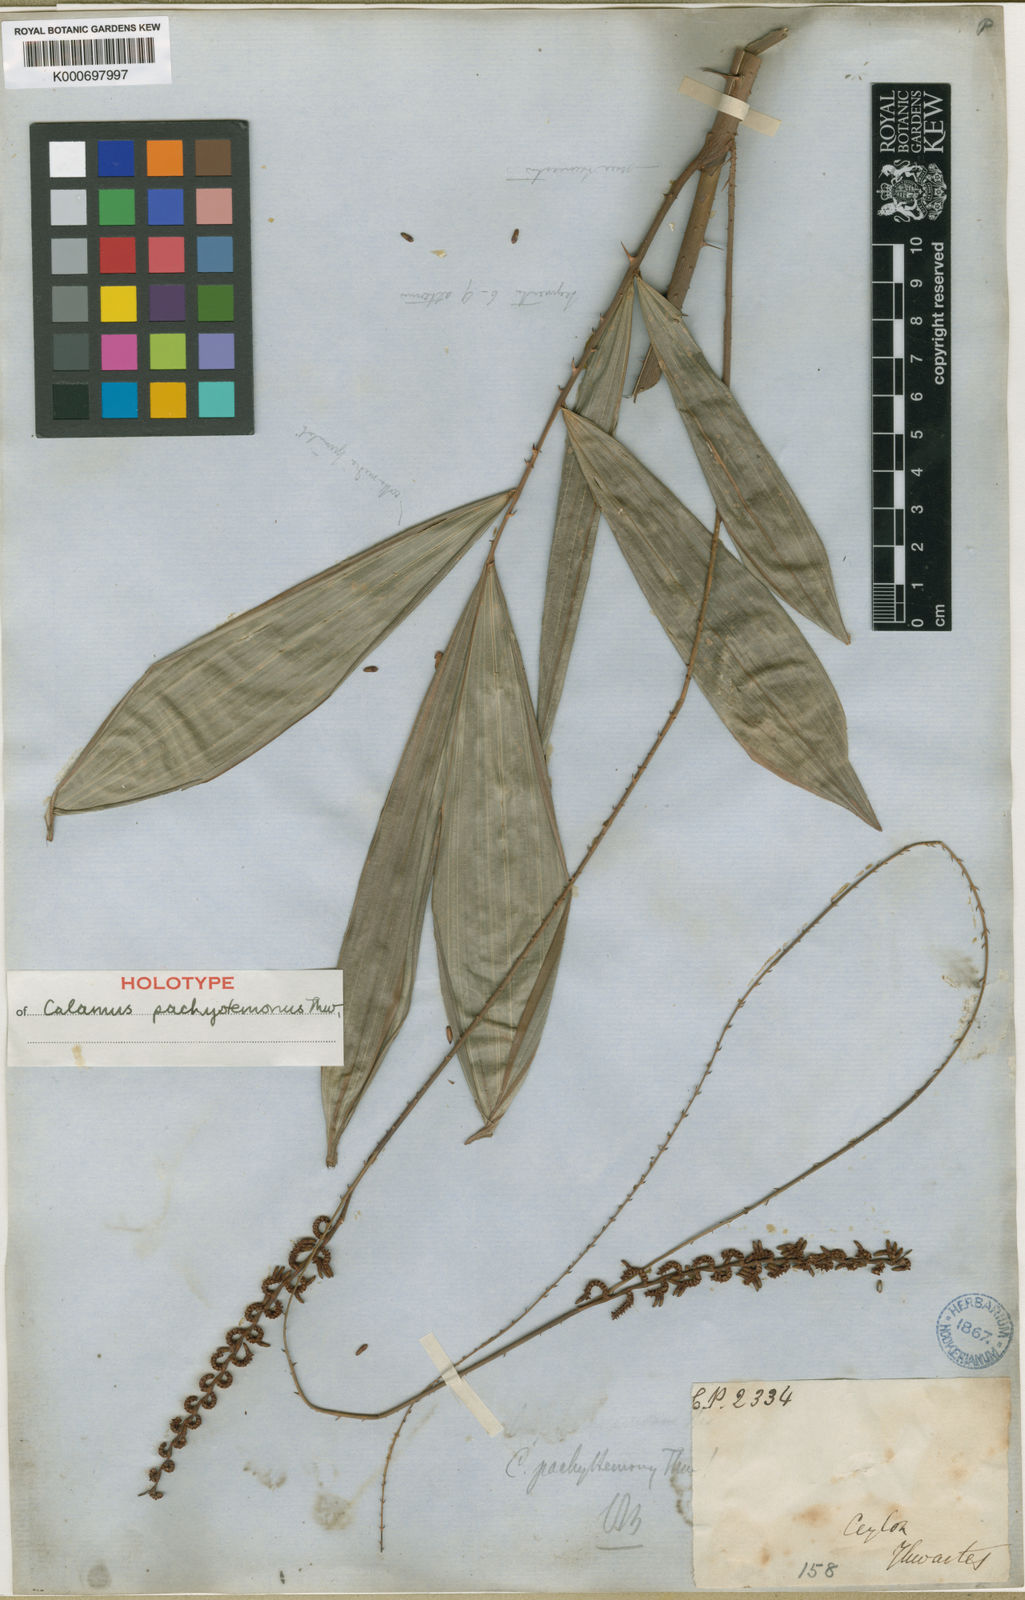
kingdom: Plantae
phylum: Tracheophyta
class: Liliopsida
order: Arecales
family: Arecaceae
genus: Calamus
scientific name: Calamus pachystemonus
